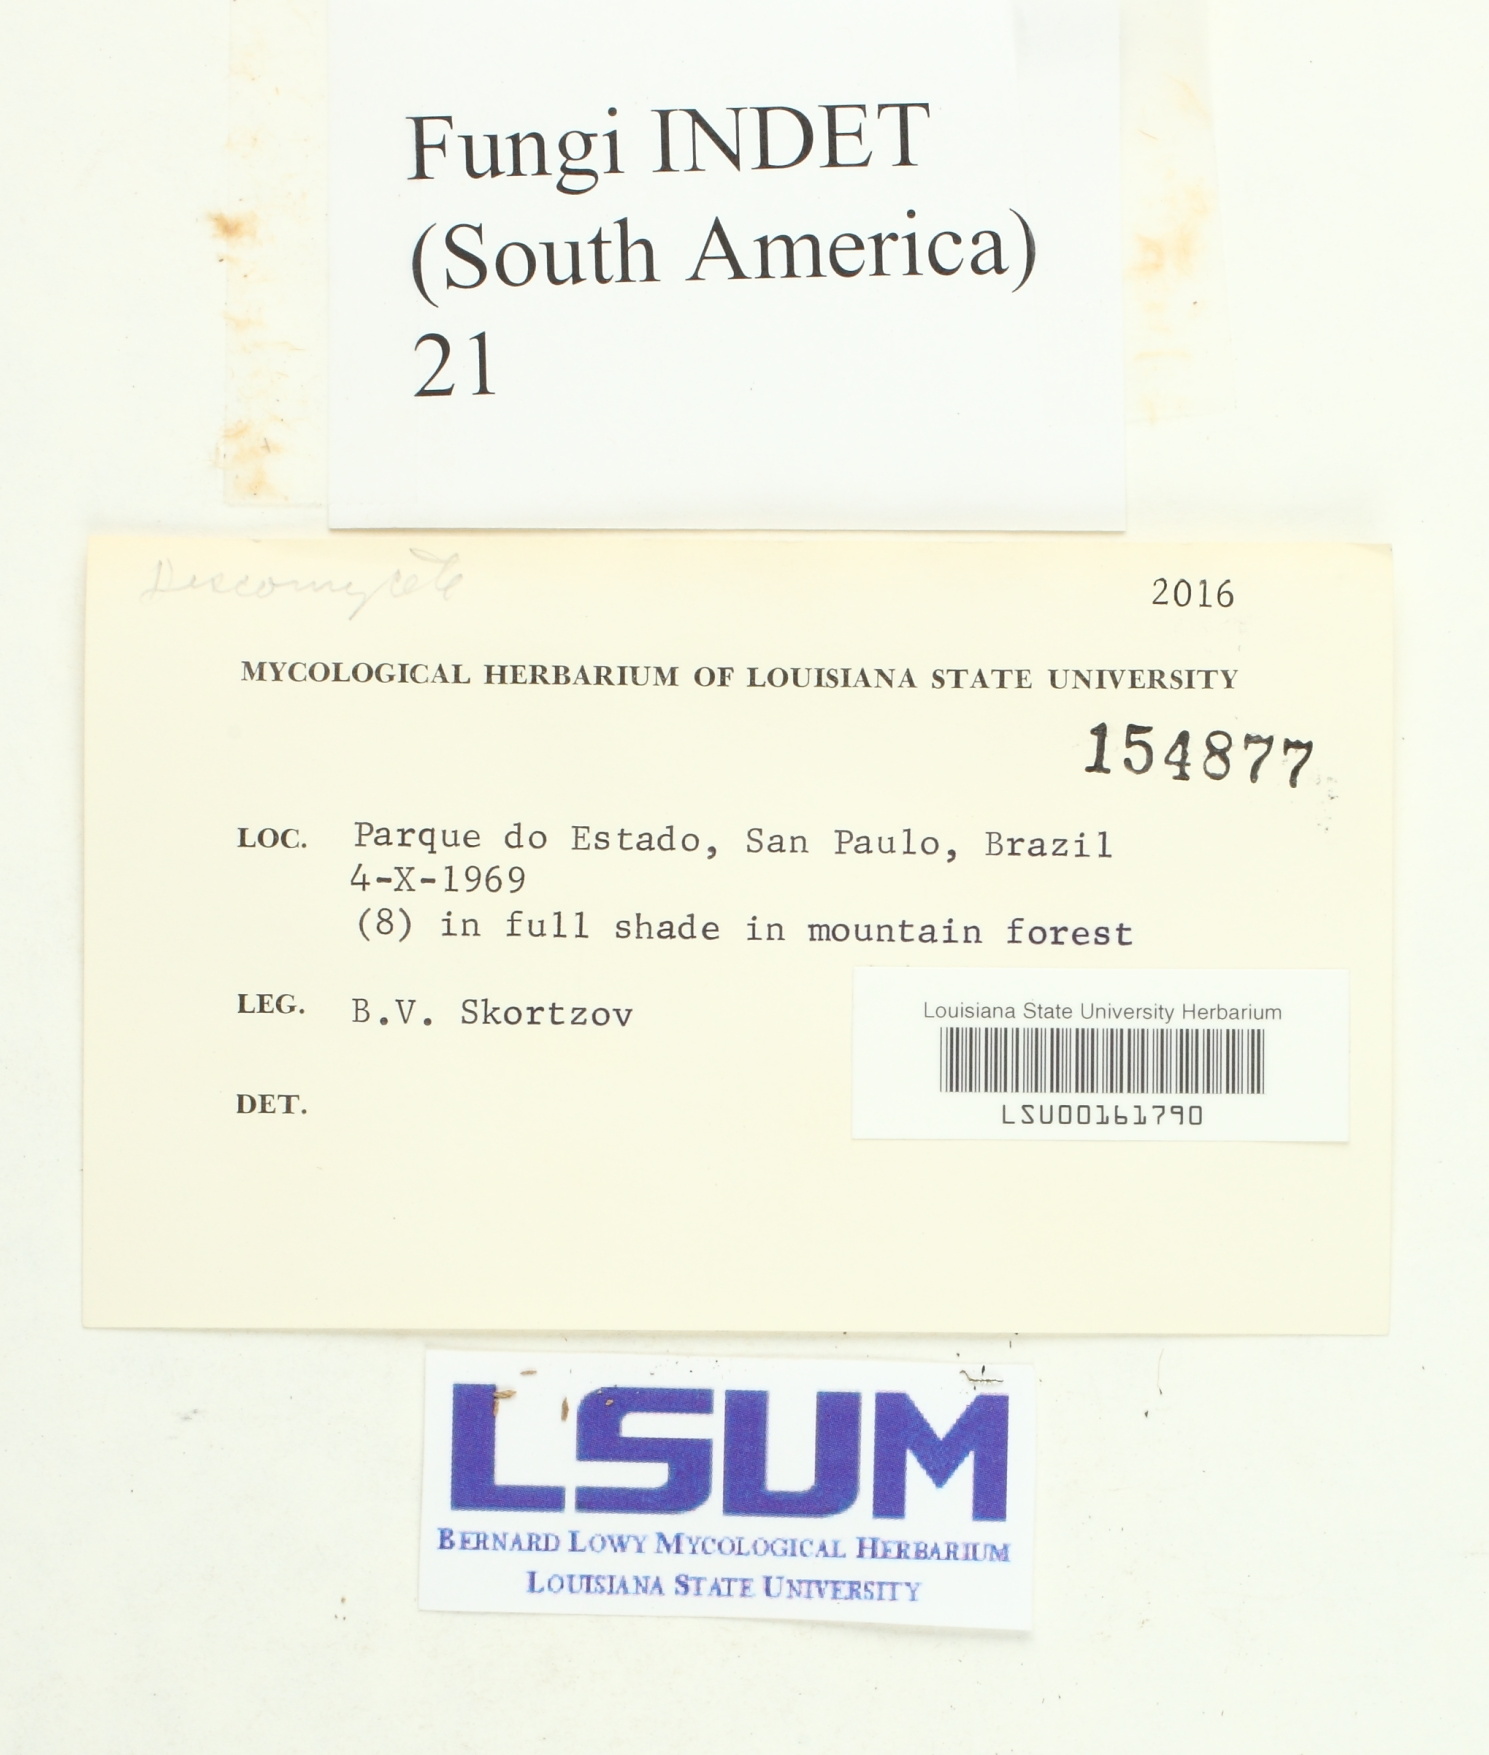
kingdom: Fungi
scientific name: Fungi
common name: Fungi
